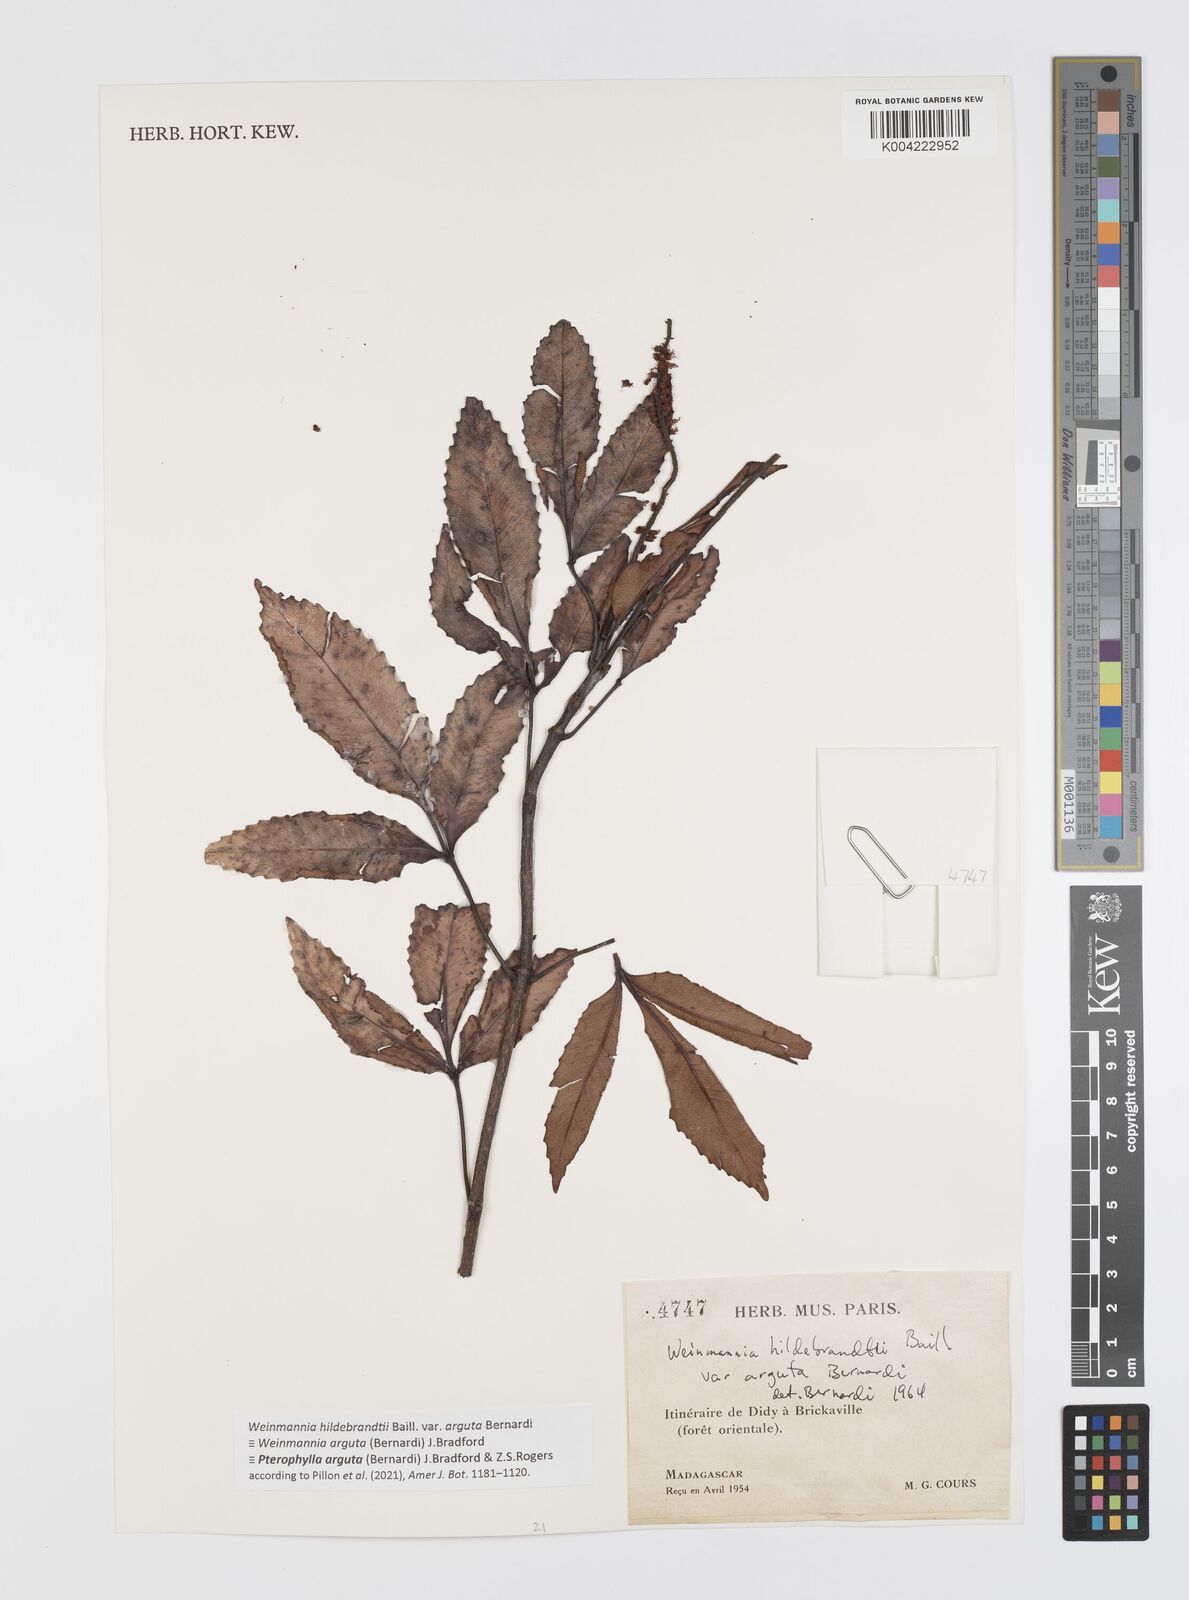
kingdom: Plantae
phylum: Tracheophyta
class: Magnoliopsida
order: Oxalidales
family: Cunoniaceae
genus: Pterophylla
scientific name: Pterophylla arguta
